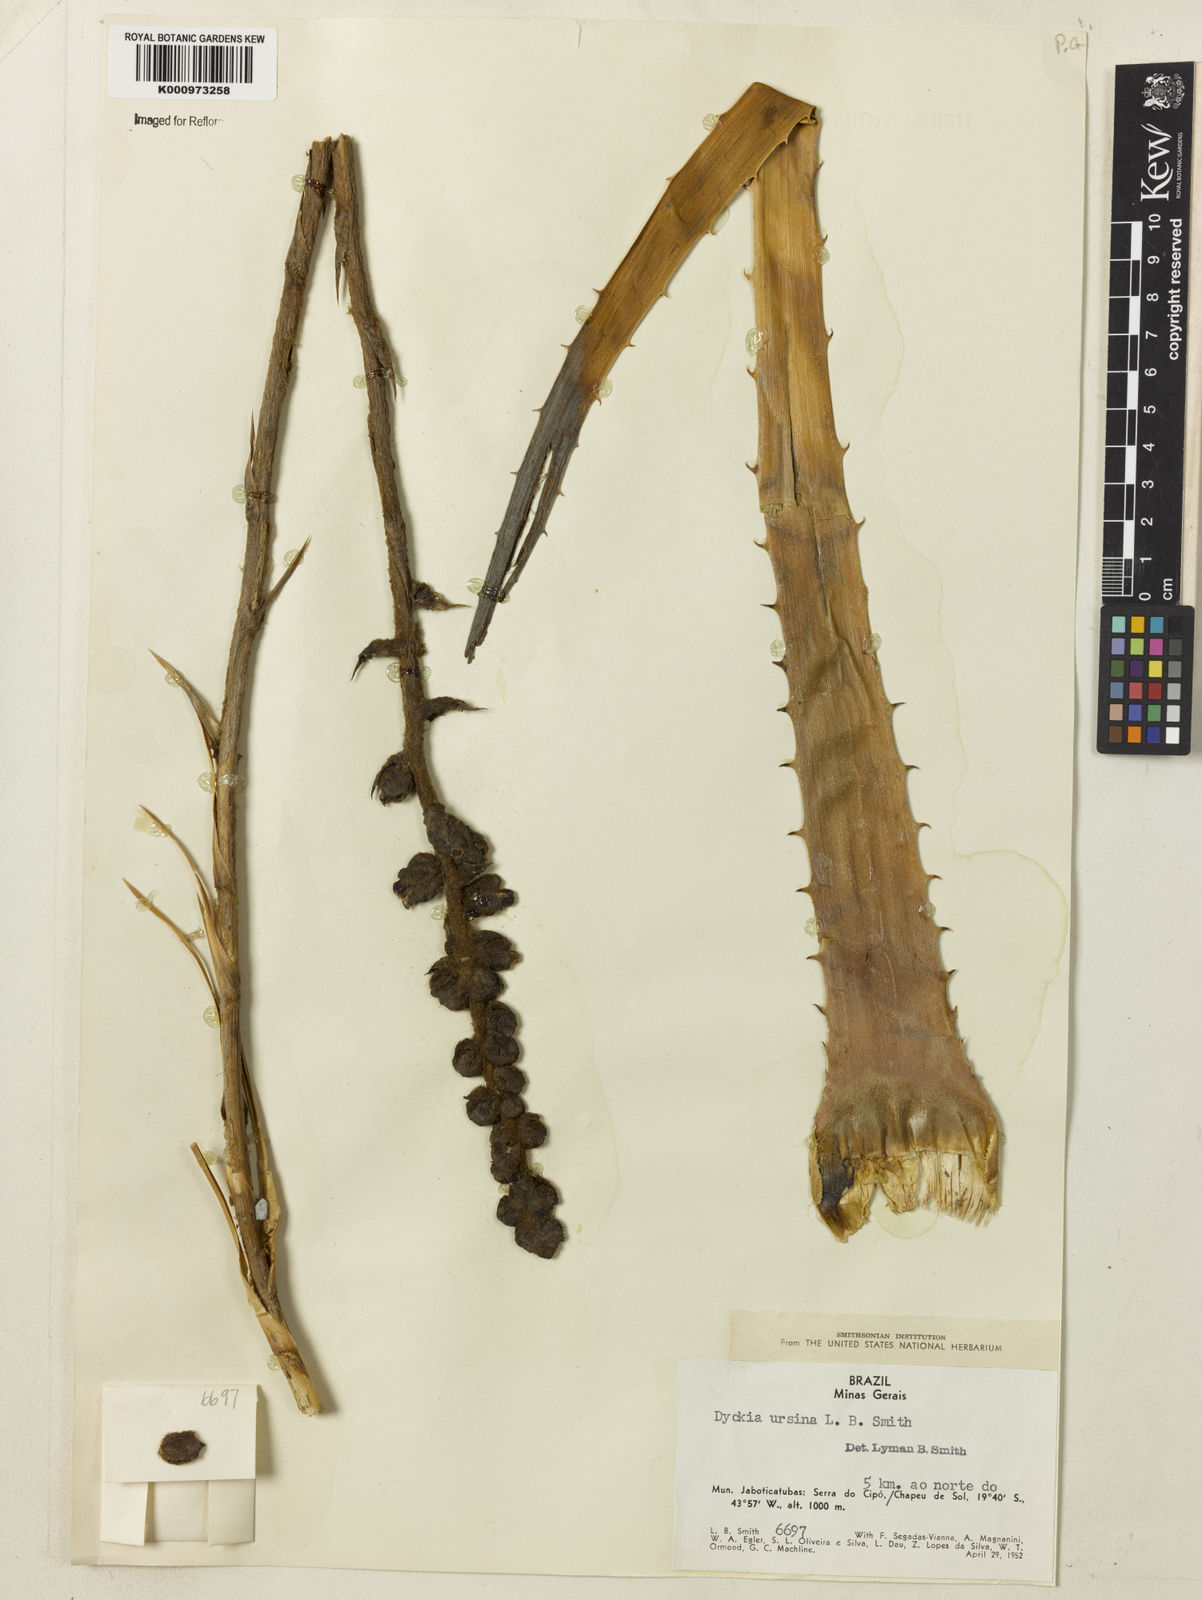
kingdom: Plantae
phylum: Tracheophyta
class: Liliopsida
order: Poales
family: Bromeliaceae
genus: Dyckia
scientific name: Dyckia ursina
